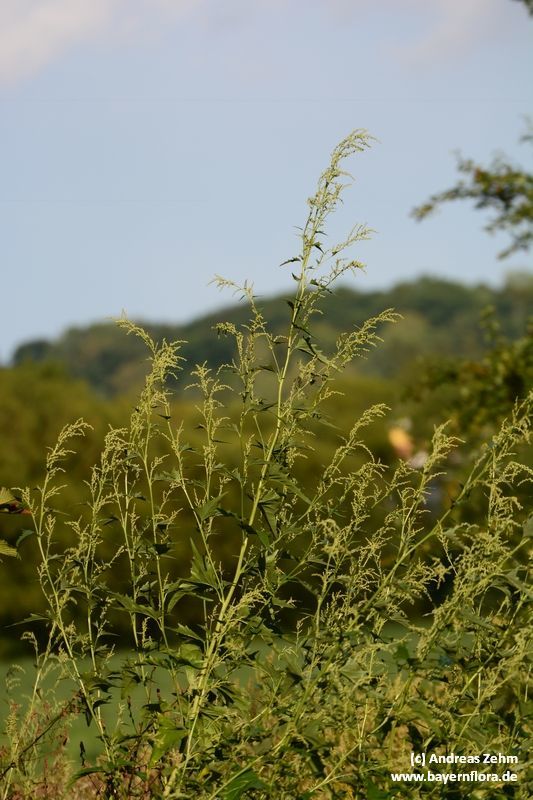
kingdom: Plantae
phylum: Tracheophyta
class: Magnoliopsida
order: Caryophyllales
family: Amaranthaceae
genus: Atriplex
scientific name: Atriplex sagittata
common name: Purple orache
